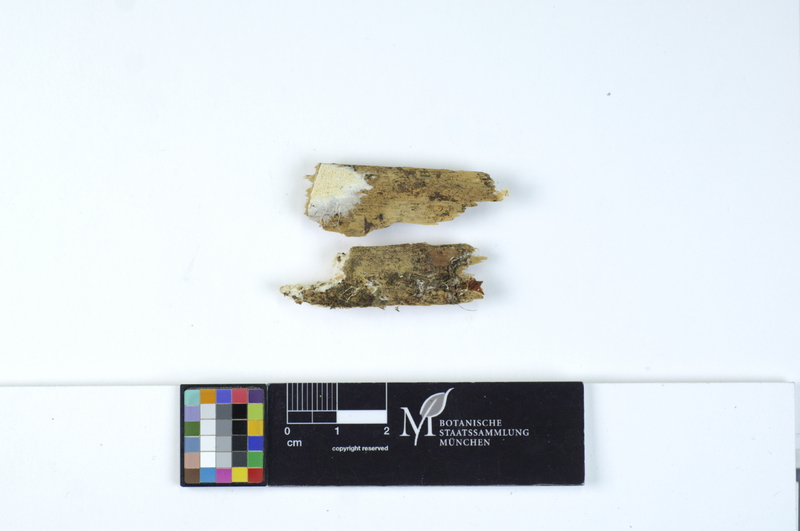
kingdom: Plantae
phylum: Tracheophyta
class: Pinopsida
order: Pinales
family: Pinaceae
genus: Pinus
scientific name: Pinus
